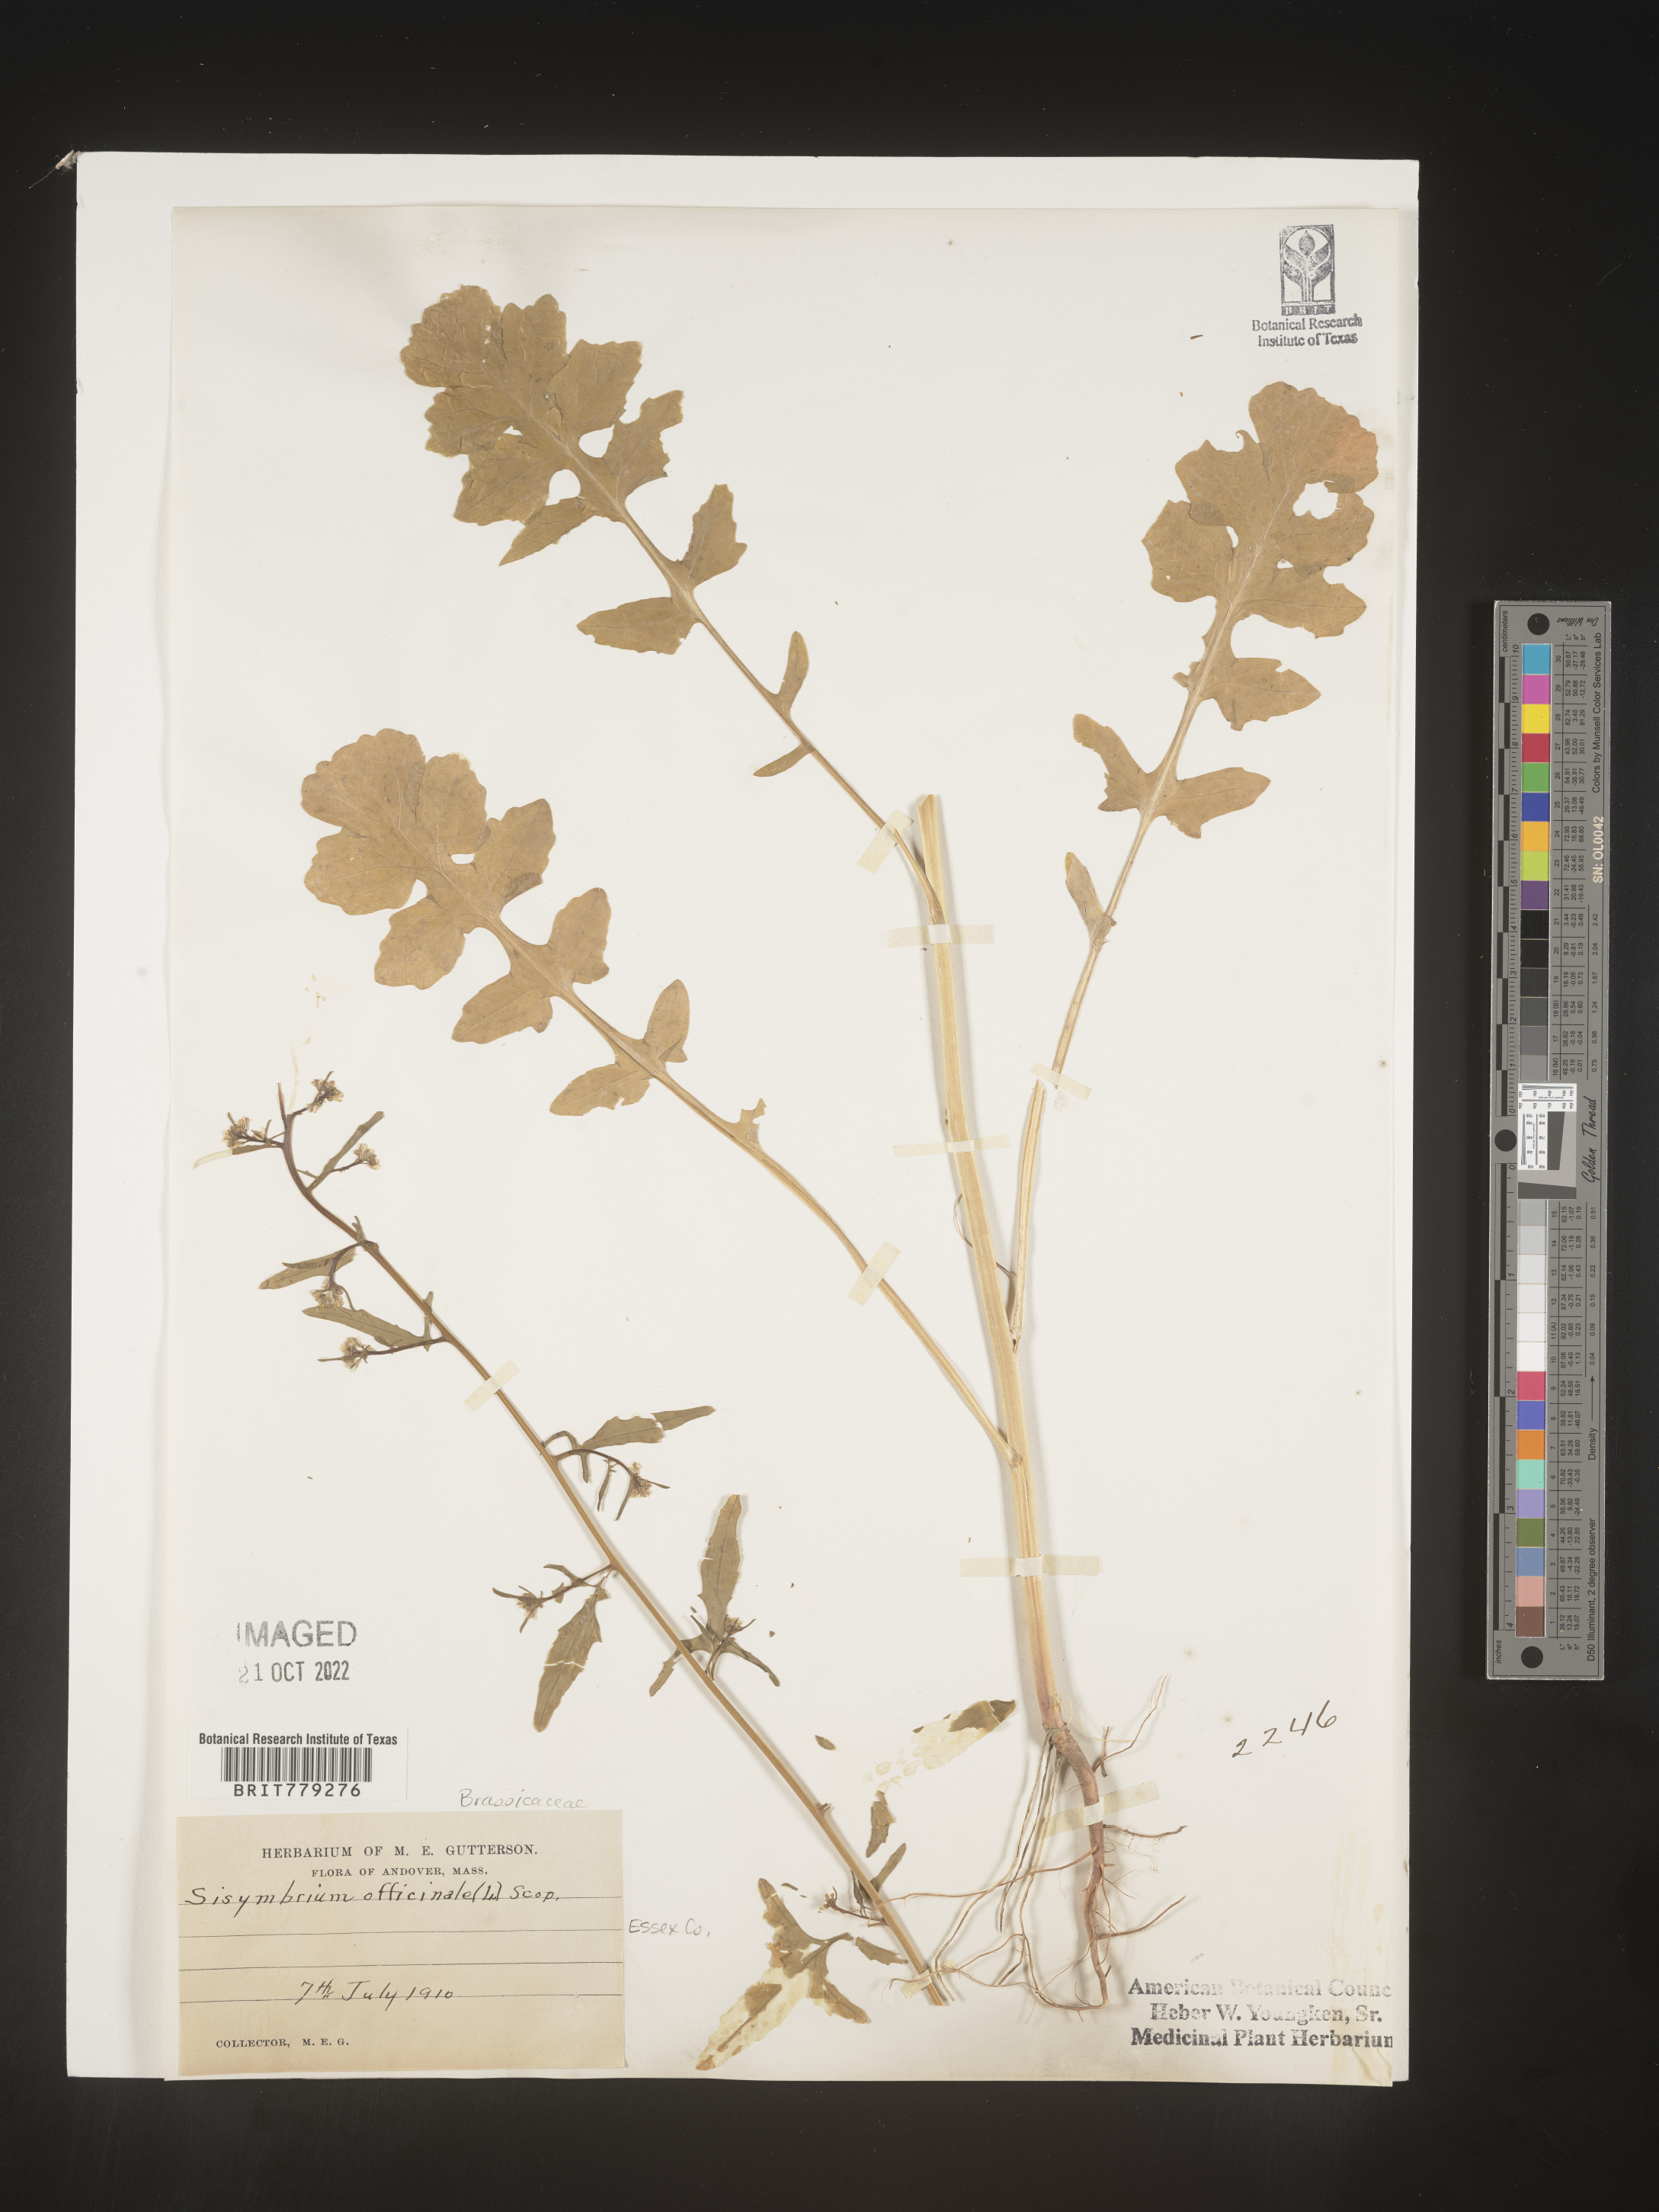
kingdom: Plantae
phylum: Tracheophyta
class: Magnoliopsida
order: Brassicales
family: Brassicaceae
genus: Sisymbrium
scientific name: Sisymbrium officinale
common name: Hedge mustard
